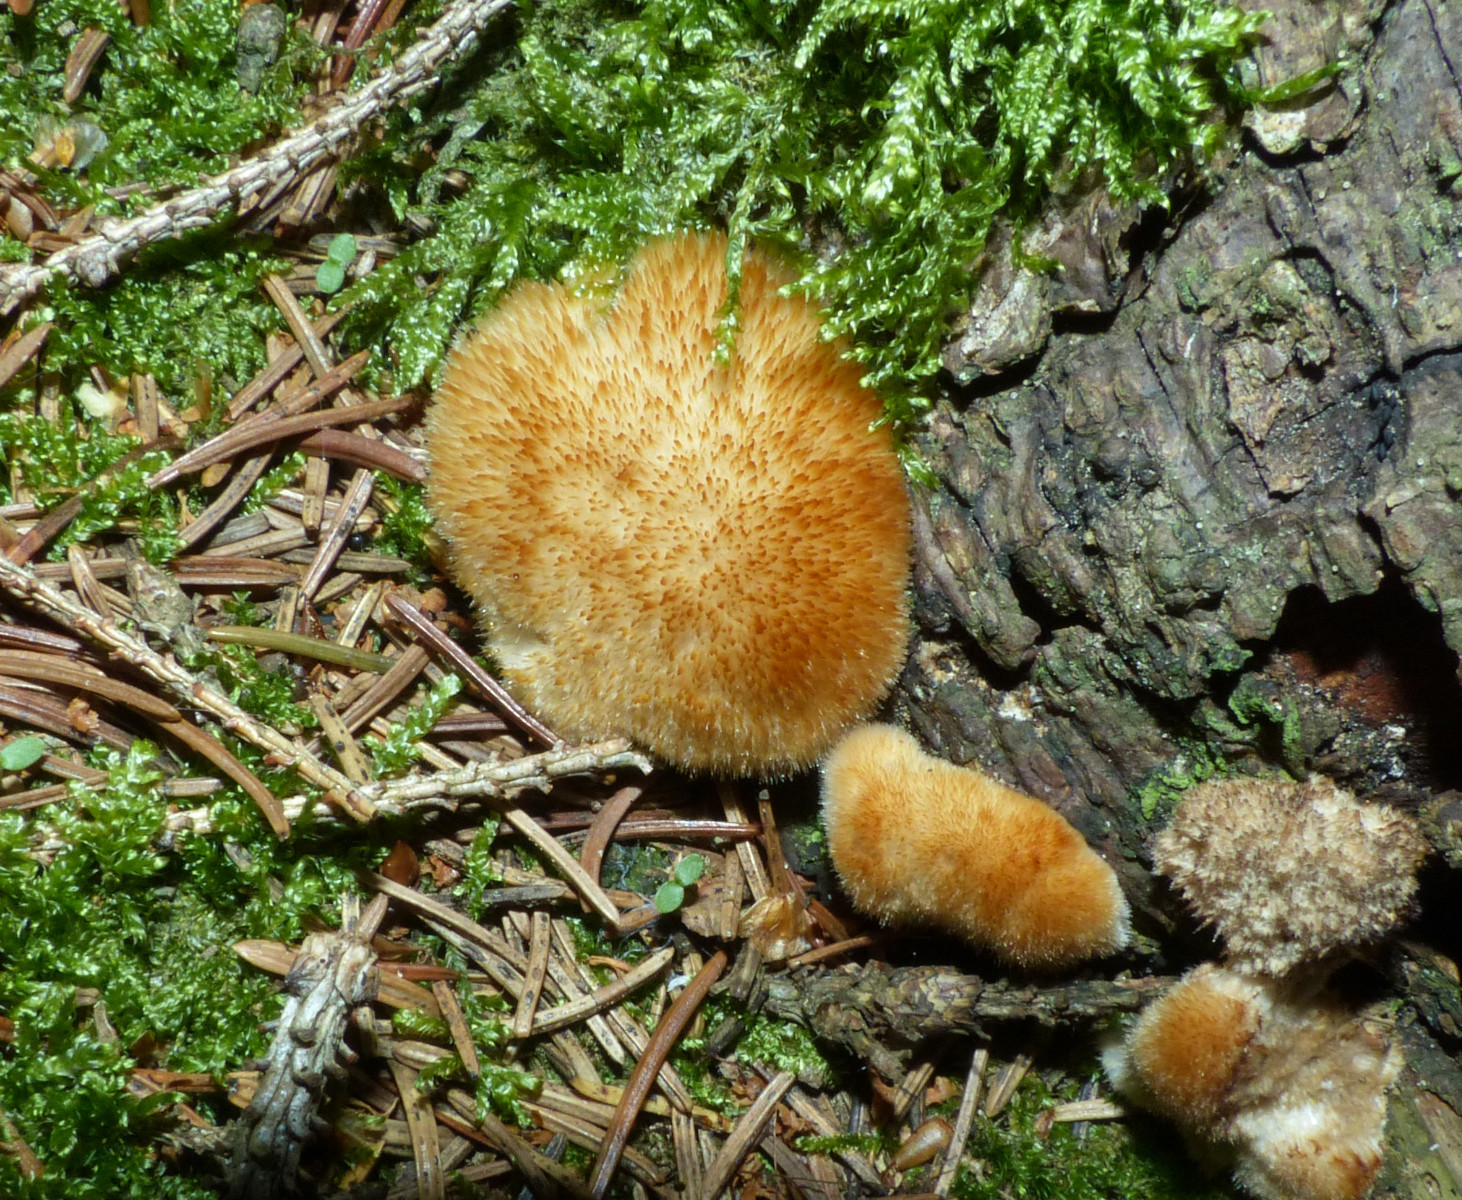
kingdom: Fungi
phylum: Basidiomycota
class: Agaricomycetes
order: Polyporales
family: Dacryobolaceae
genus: Postia
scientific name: Postia ptychogaster
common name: støvende kødporesvamp
